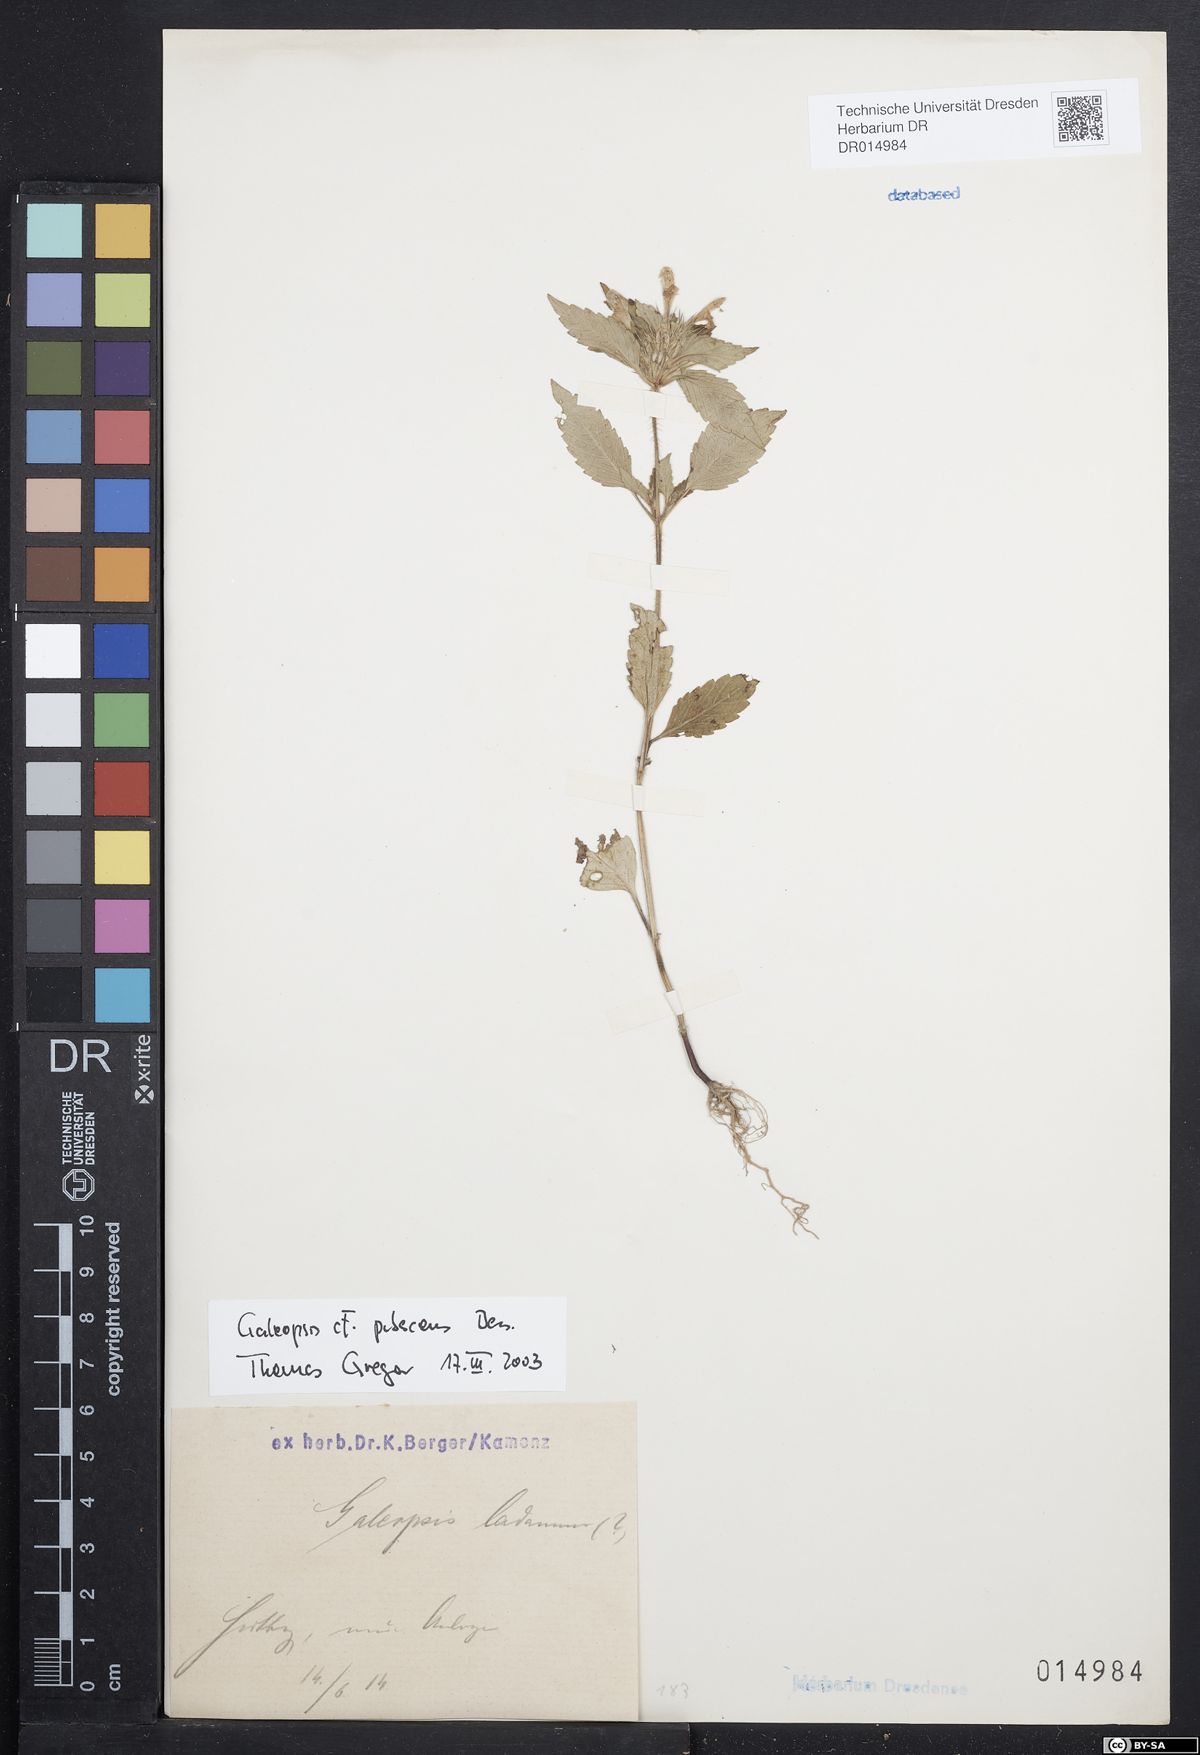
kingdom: Plantae
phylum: Tracheophyta
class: Magnoliopsida
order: Lamiales
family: Lamiaceae
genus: Galeopsis
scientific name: Galeopsis pubescens
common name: Downy hemp-nettle
